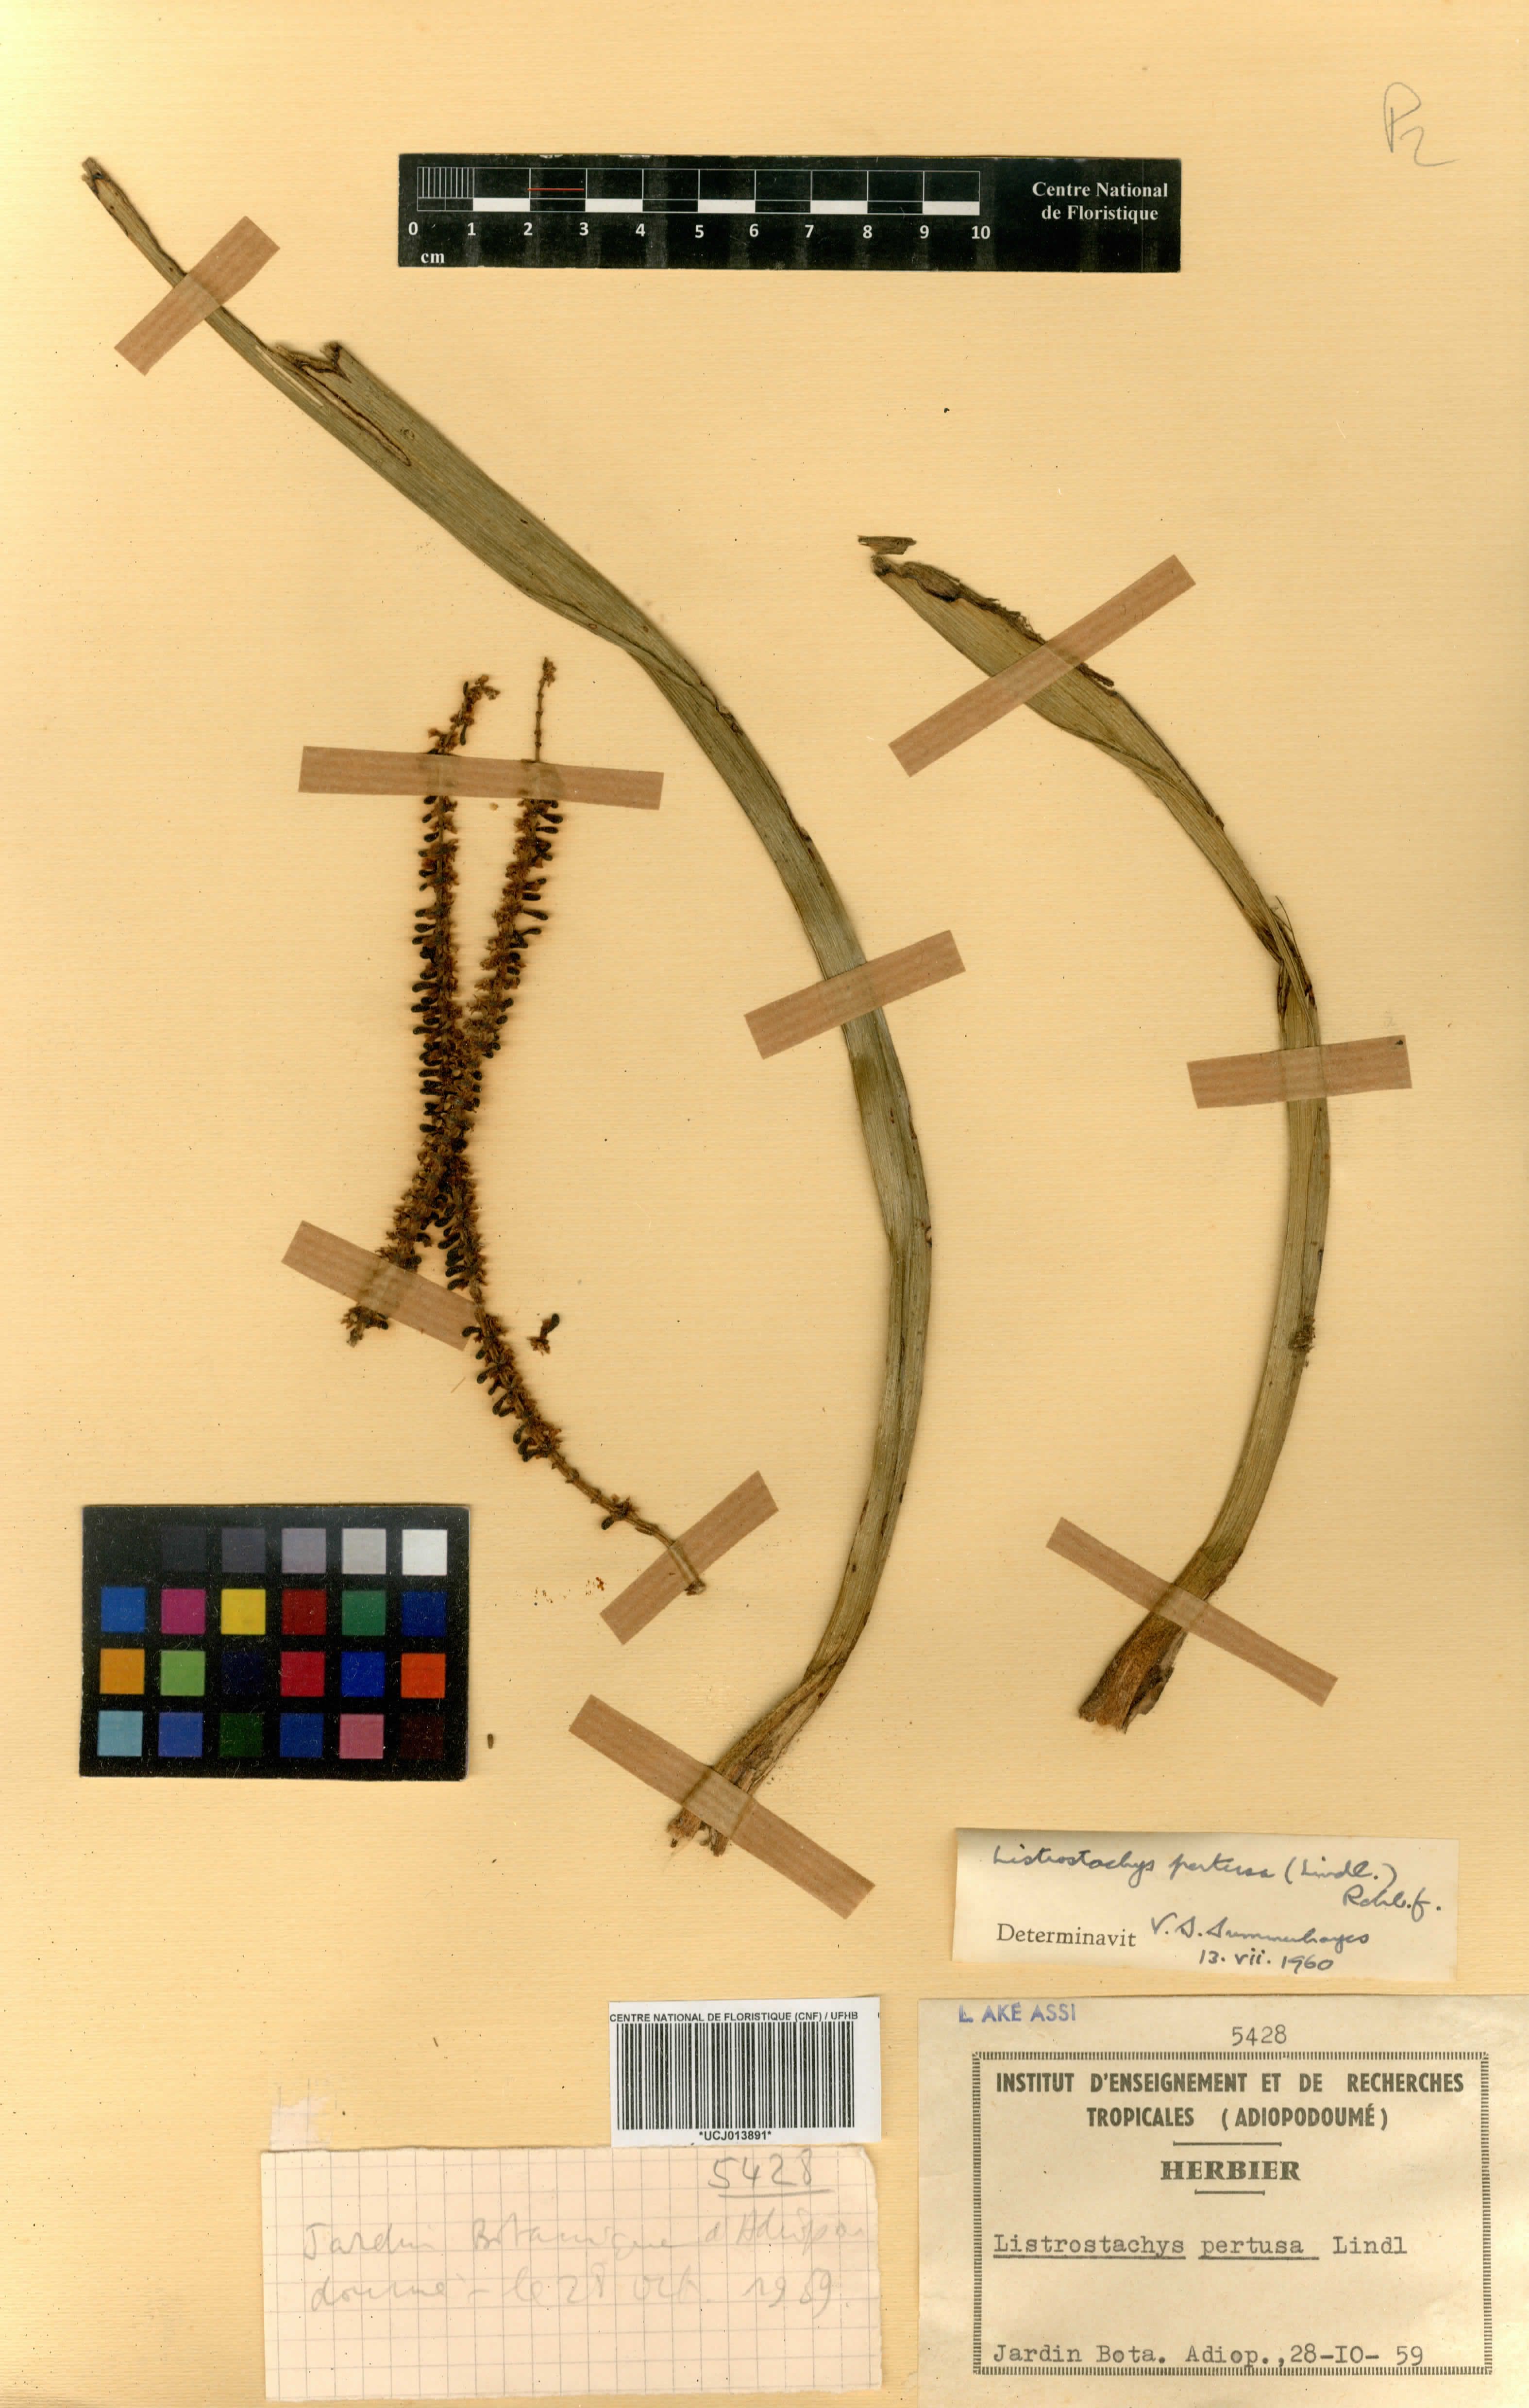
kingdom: Plantae
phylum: Tracheophyta
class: Liliopsida
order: Asparagales
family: Orchidaceae
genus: Listrostachys
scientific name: Listrostachys pertusa
